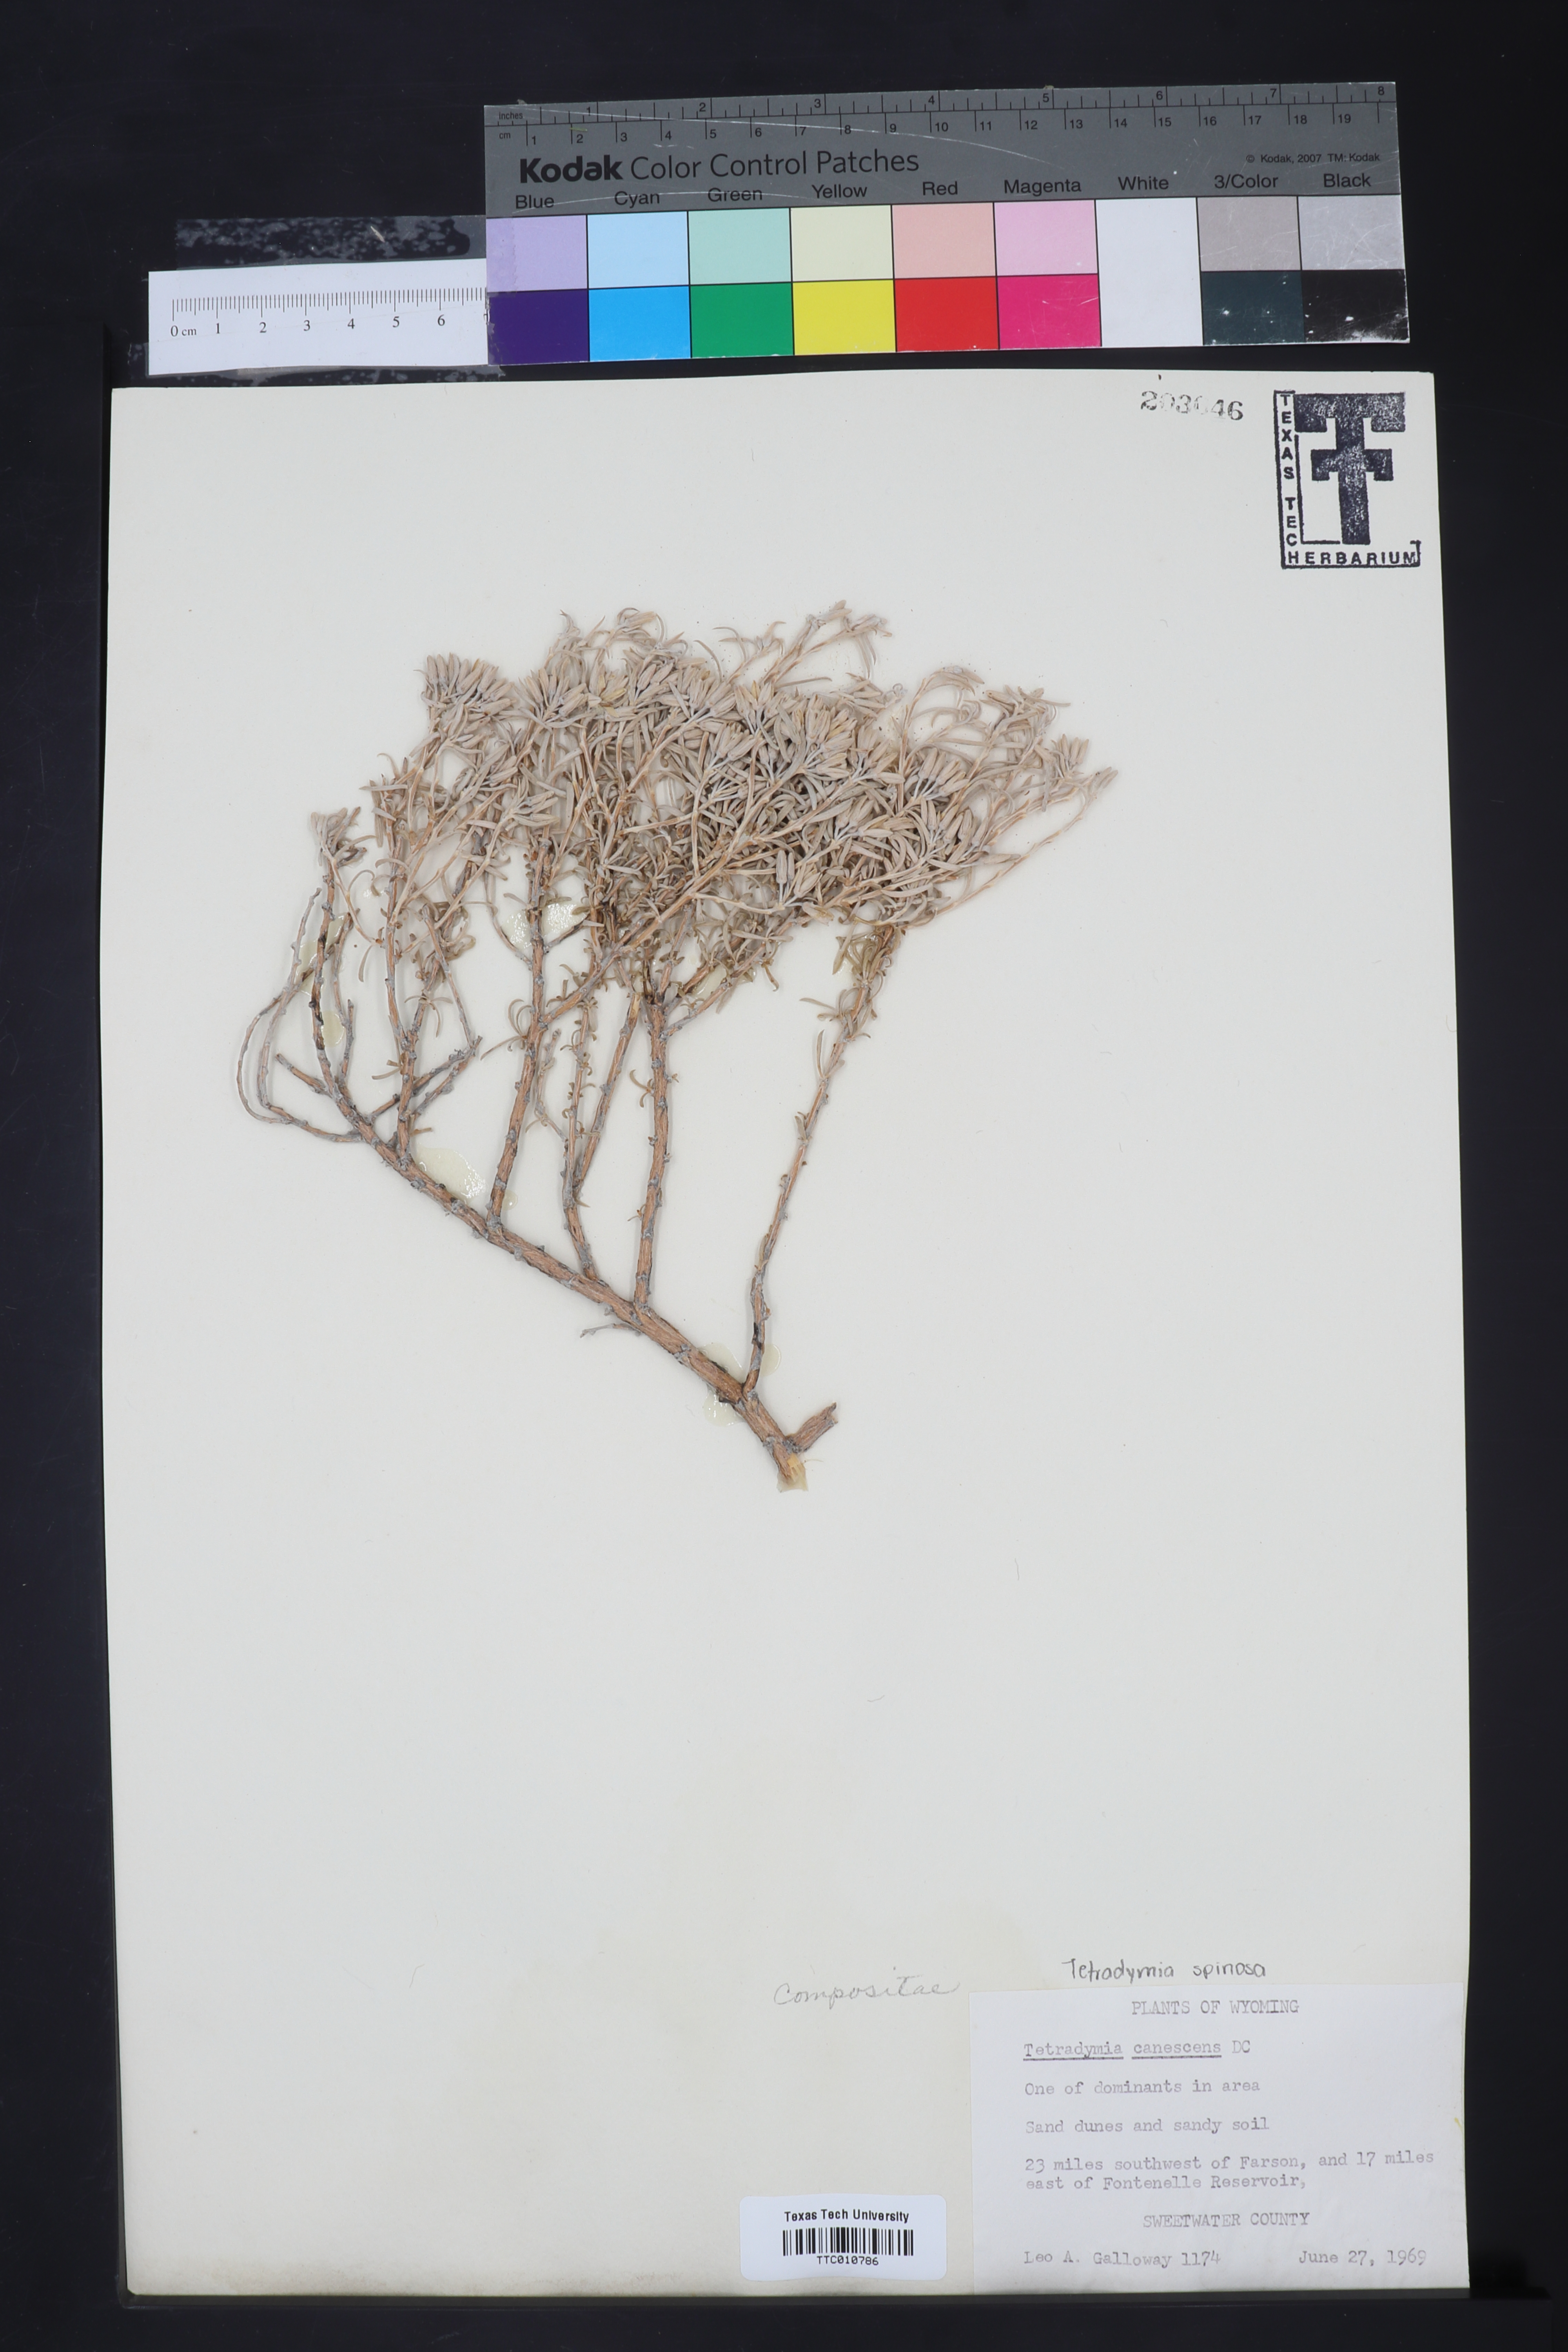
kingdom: Plantae
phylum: Tracheophyta
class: Magnoliopsida
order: Asterales
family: Asteraceae
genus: Tetradymia
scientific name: Tetradymia canescens
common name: Spineless horsebrush
